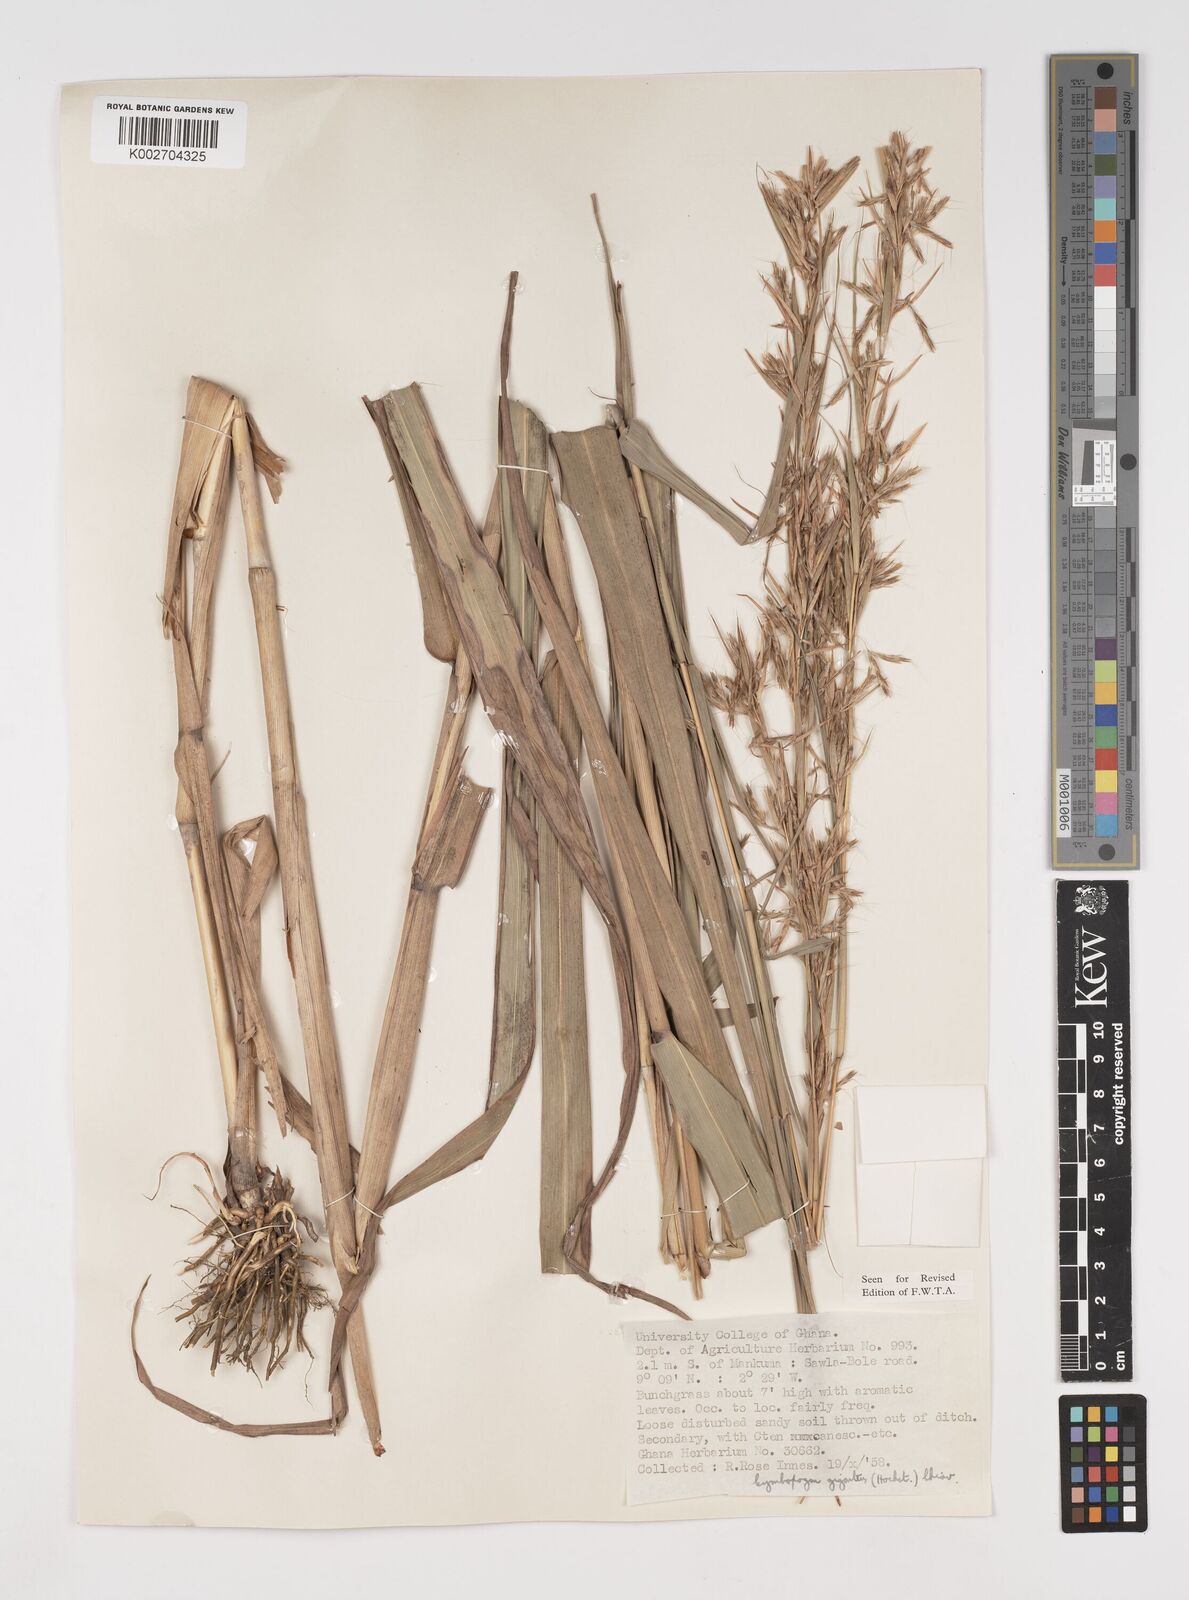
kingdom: Plantae
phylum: Tracheophyta
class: Liliopsida
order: Poales
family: Poaceae
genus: Cymbopogon
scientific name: Cymbopogon giganteus
